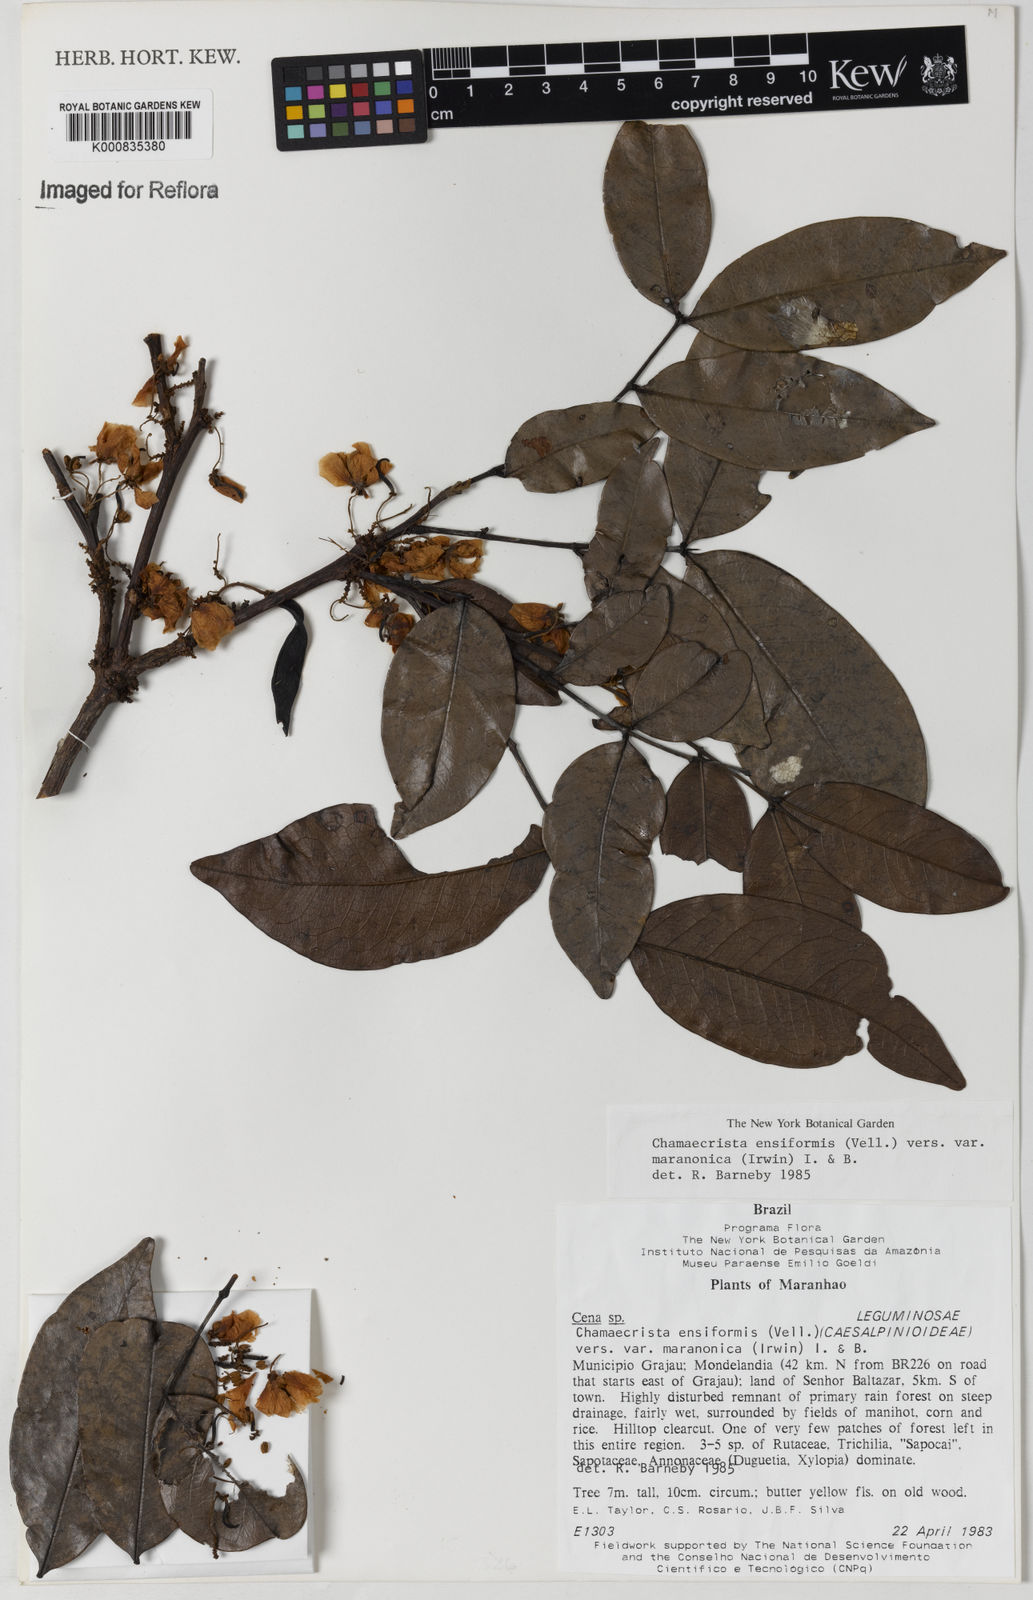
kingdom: Plantae
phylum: Tracheophyta
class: Magnoliopsida
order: Fabales
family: Fabaceae
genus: Chamaecrista
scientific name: Chamaecrista ensiformis
